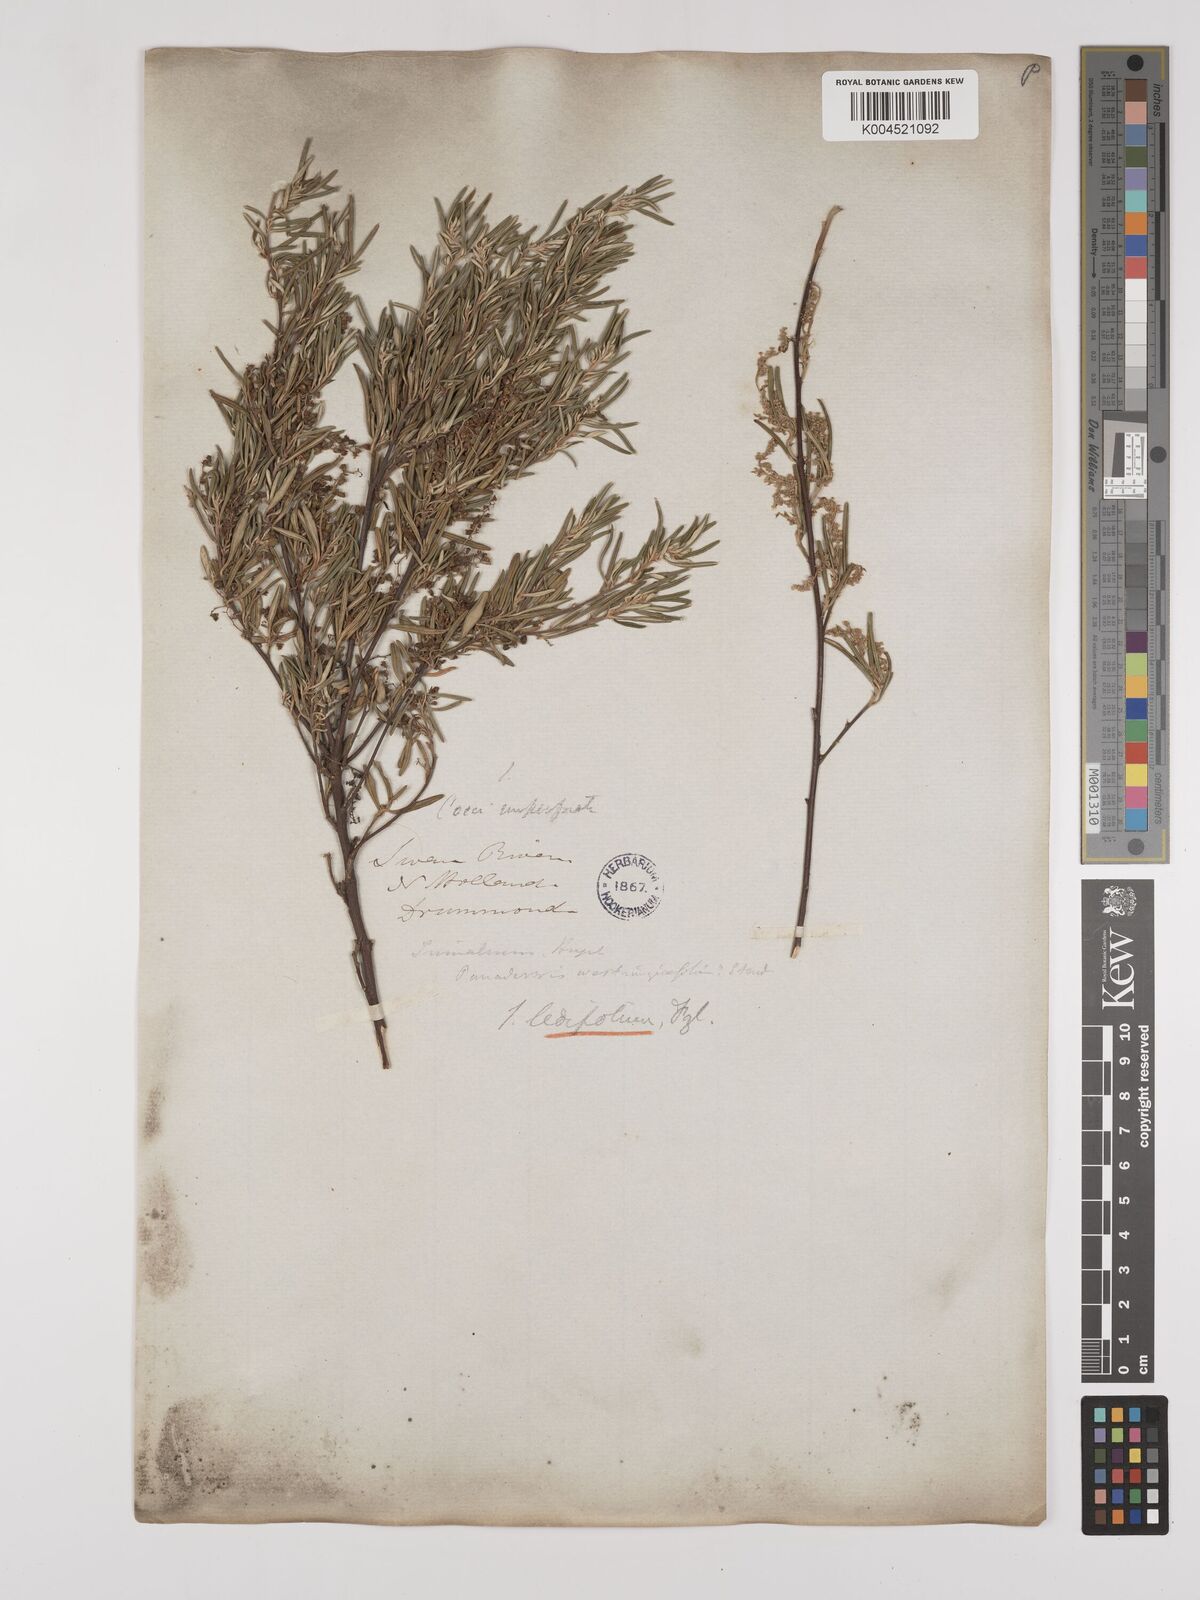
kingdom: Plantae
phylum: Tracheophyta
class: Magnoliopsida
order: Rosales
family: Rhamnaceae
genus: Trymalium
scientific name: Trymalium ledifolium
